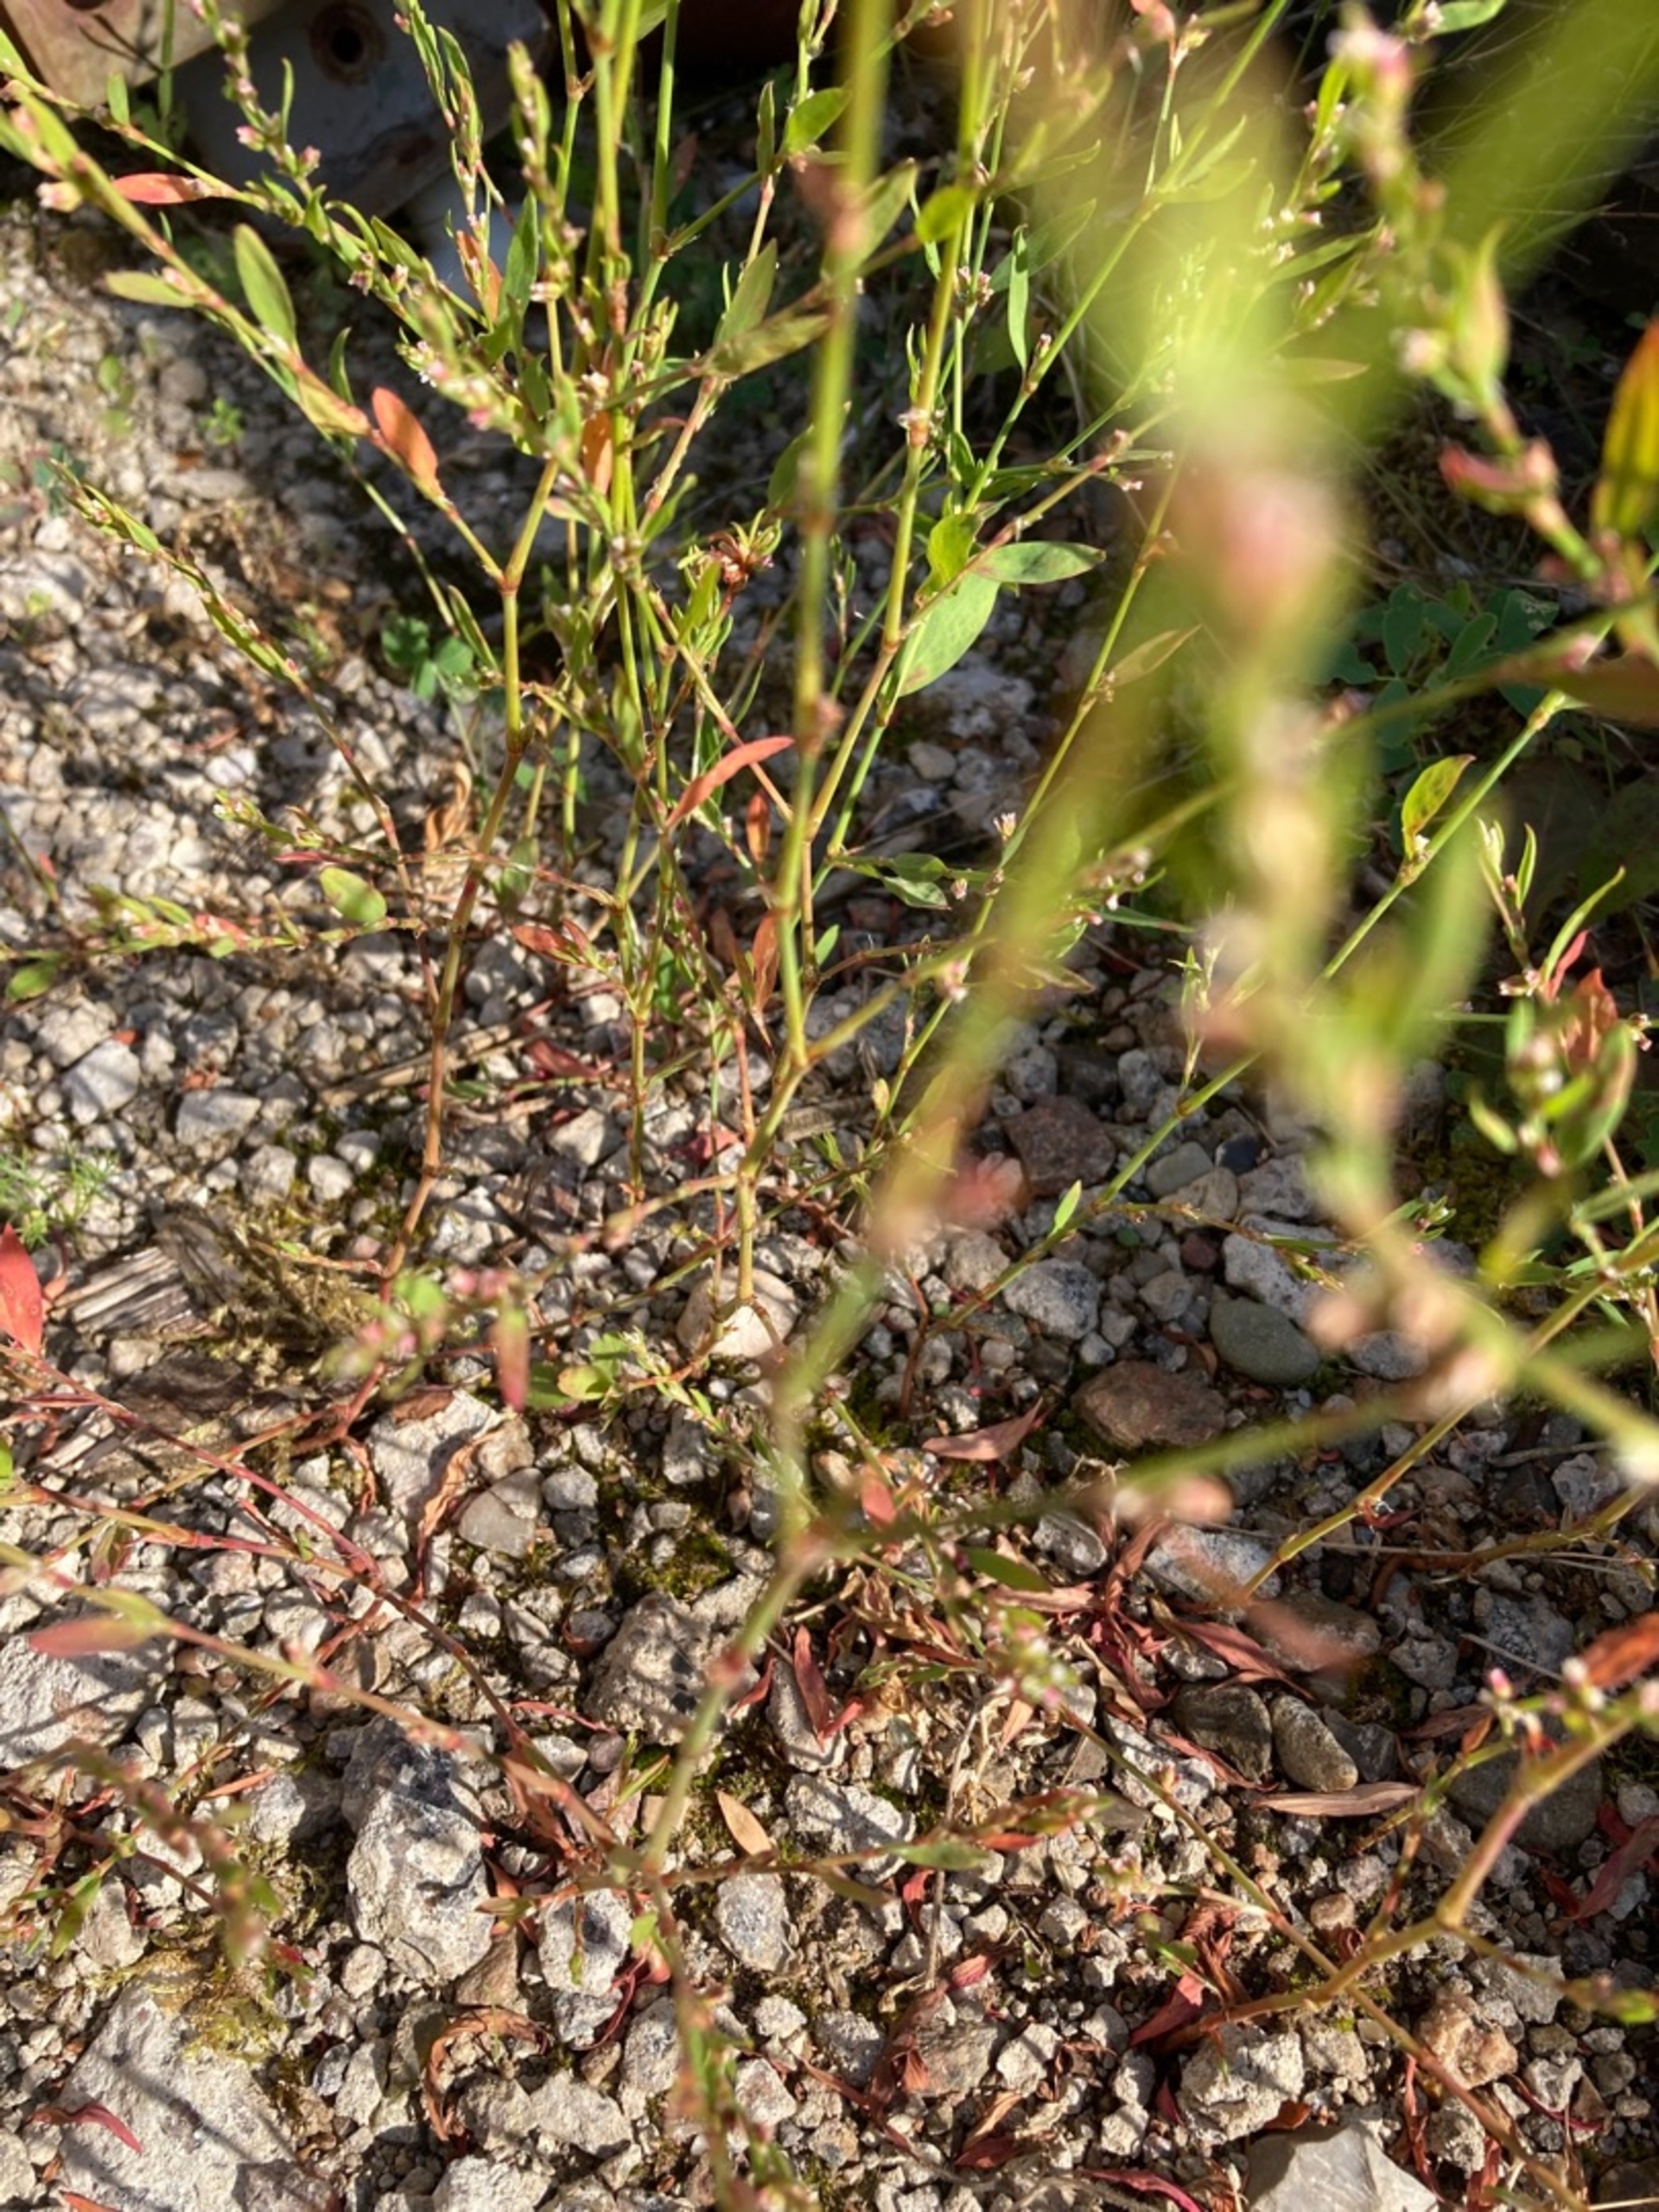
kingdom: Plantae
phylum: Tracheophyta
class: Magnoliopsida
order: Caryophyllales
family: Polygonaceae
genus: Polygonum
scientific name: Polygonum aviculare
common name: Vej-pileurt (underart)
